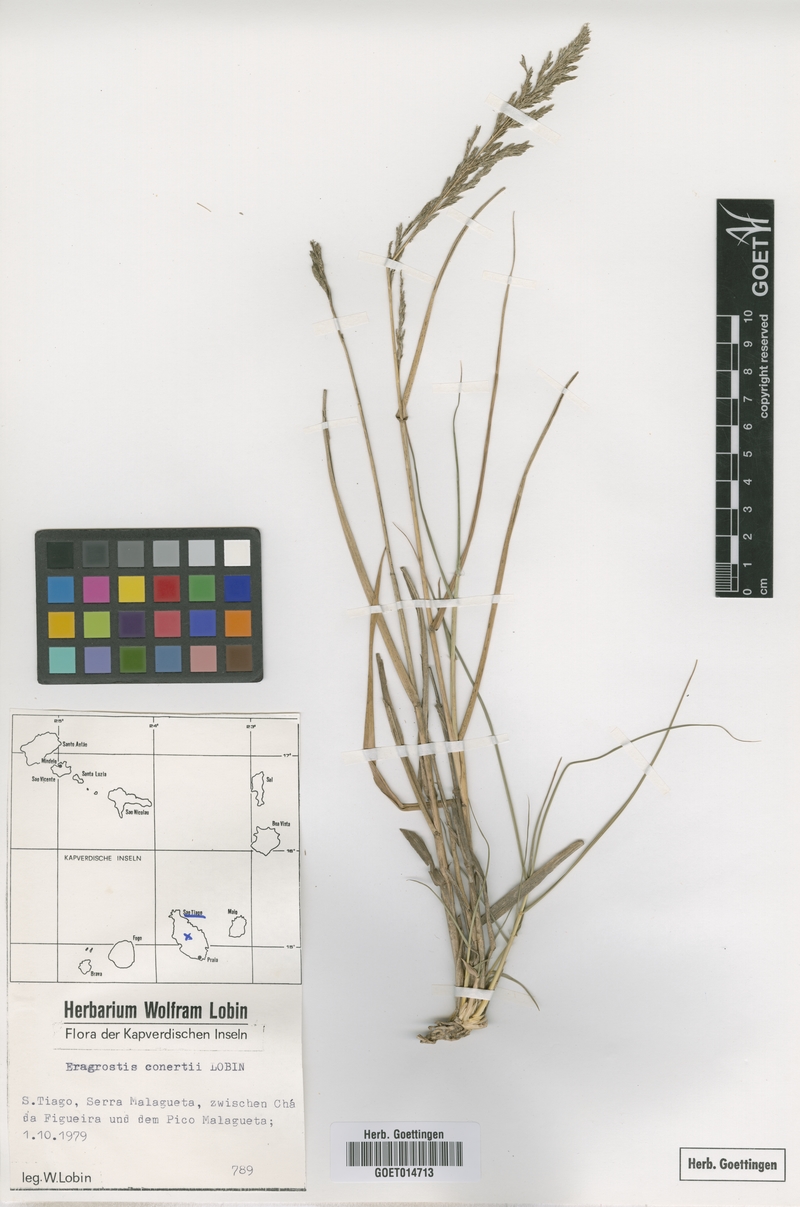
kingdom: Plantae
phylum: Tracheophyta
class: Liliopsida
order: Poales
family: Poaceae
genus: Eragrostis
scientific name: Eragrostis conertii
